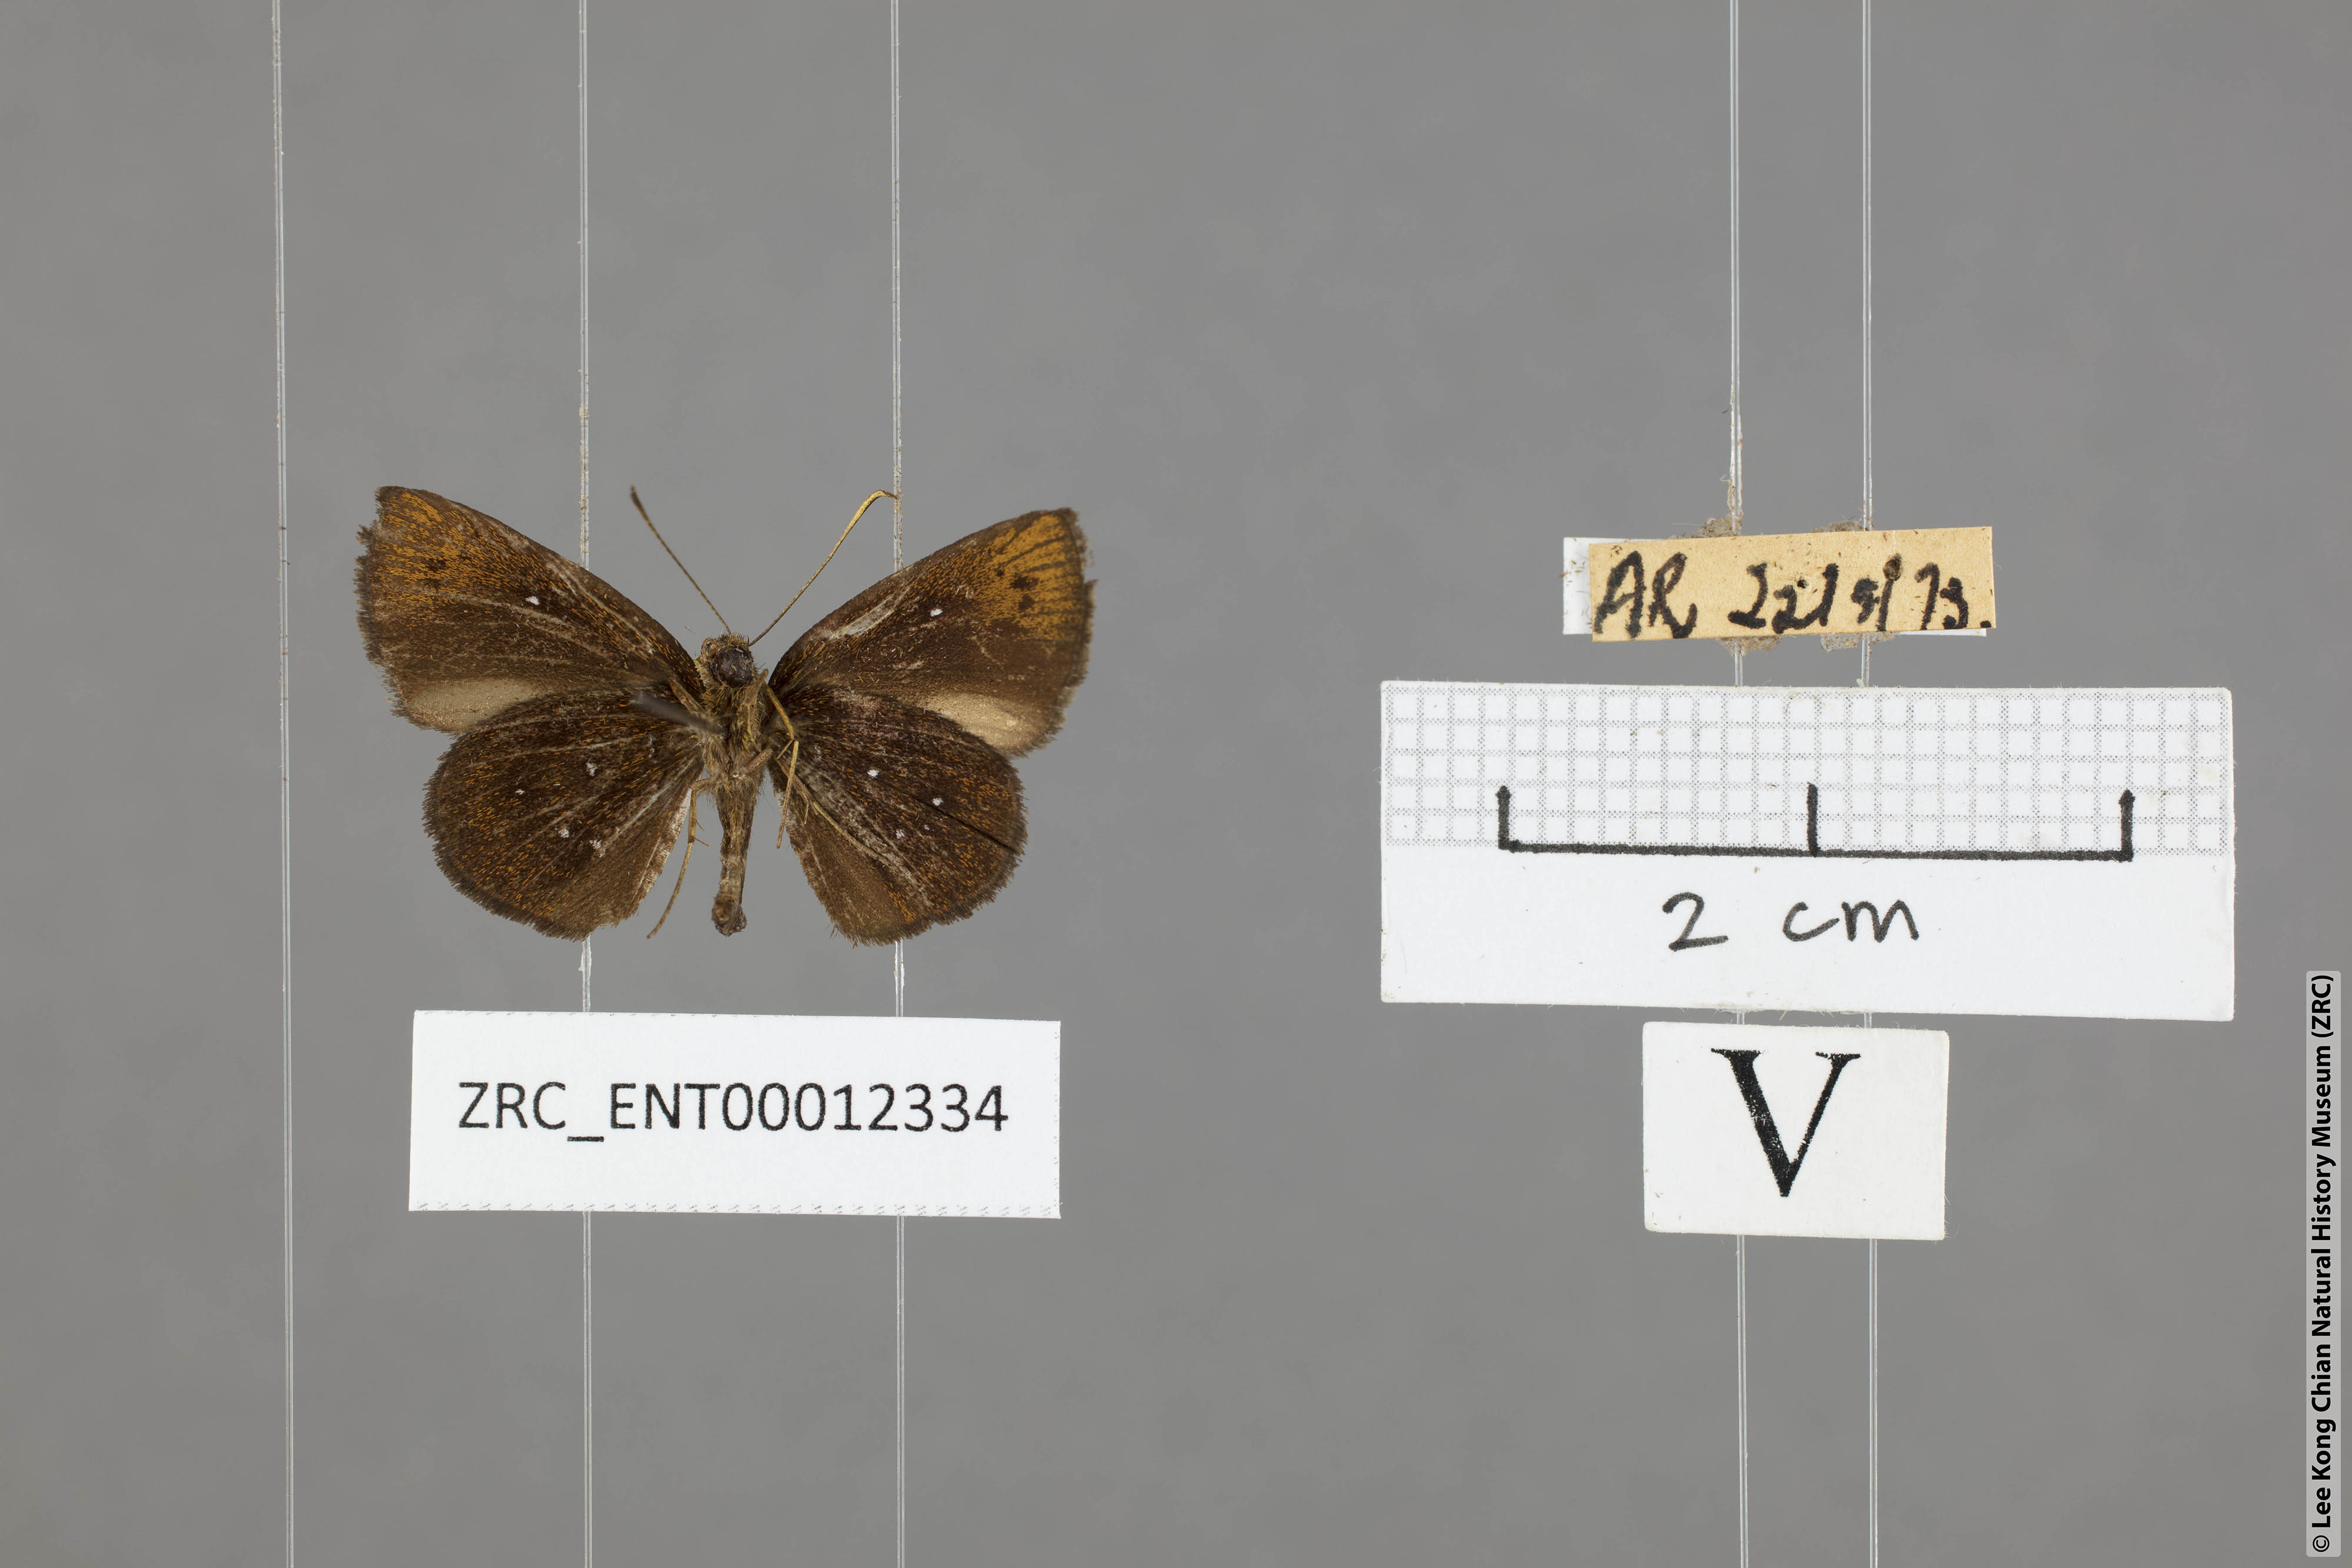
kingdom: Animalia
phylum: Arthropoda
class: Insecta
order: Lepidoptera
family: Hesperiidae
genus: Arnetta
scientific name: Arnetta verones
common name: Sumatran bob
